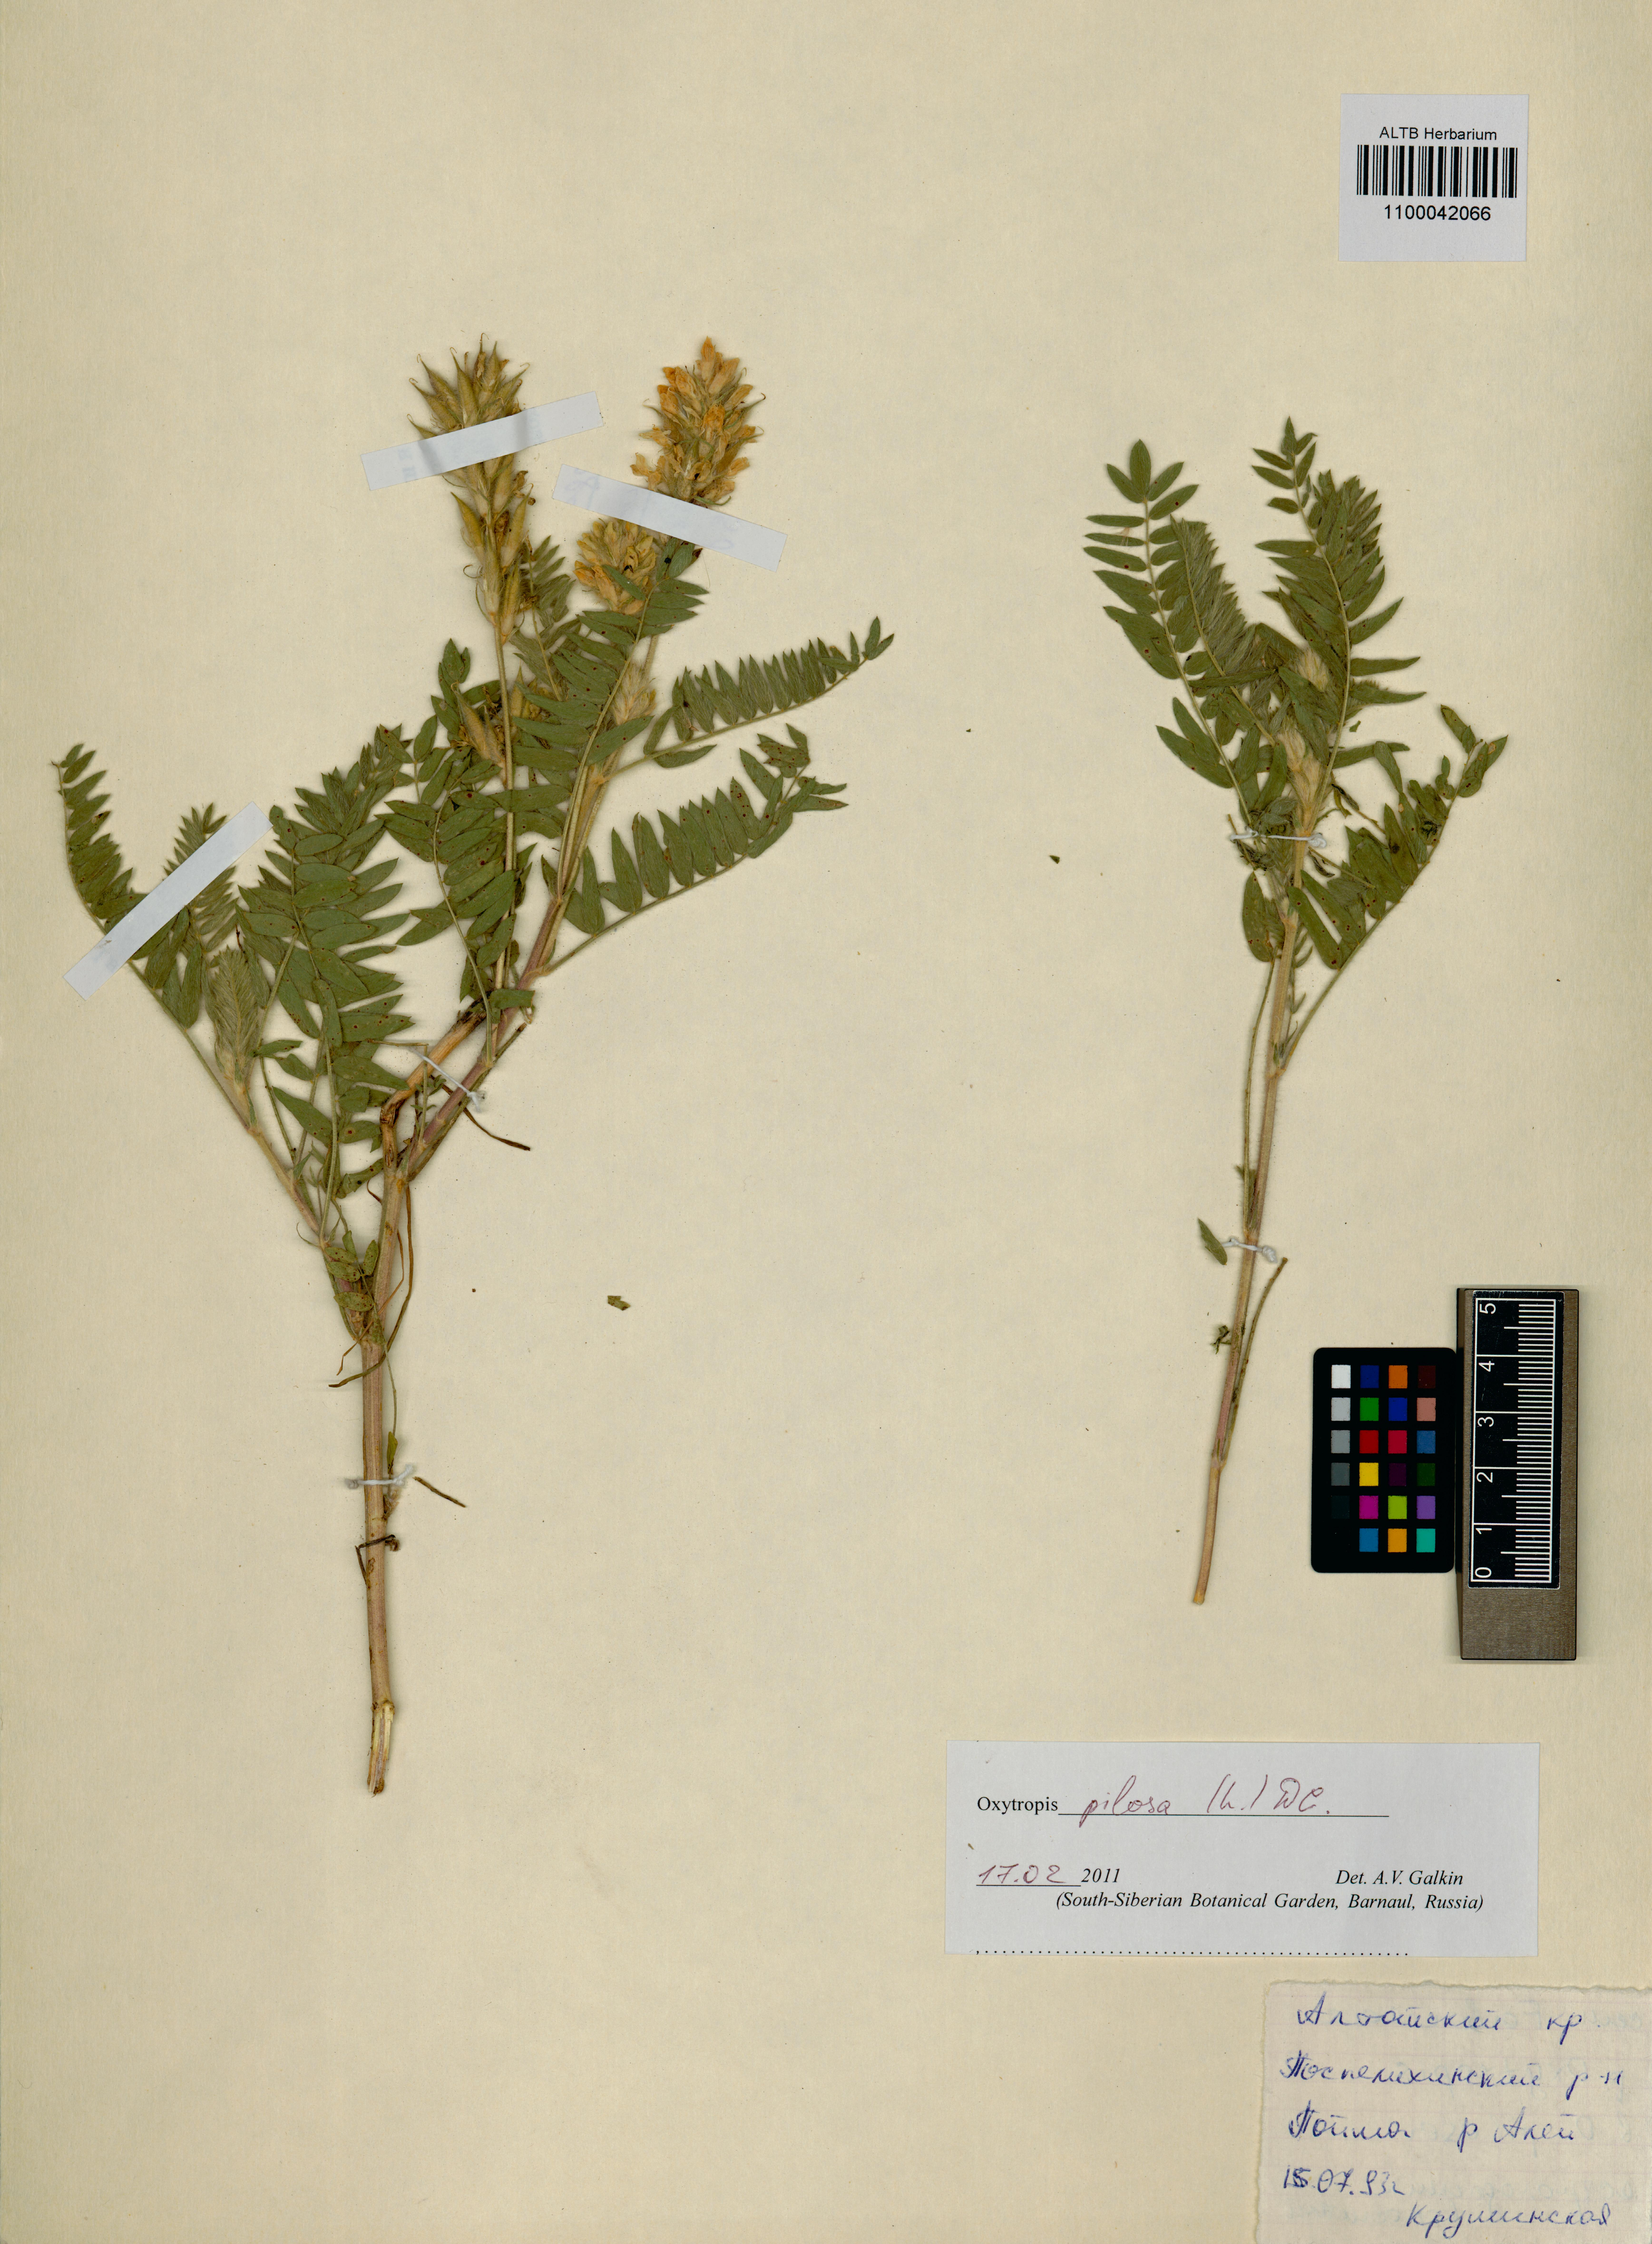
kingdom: Plantae
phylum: Tracheophyta
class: Magnoliopsida
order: Fabales
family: Fabaceae
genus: Oxytropis
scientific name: Oxytropis pilosa
